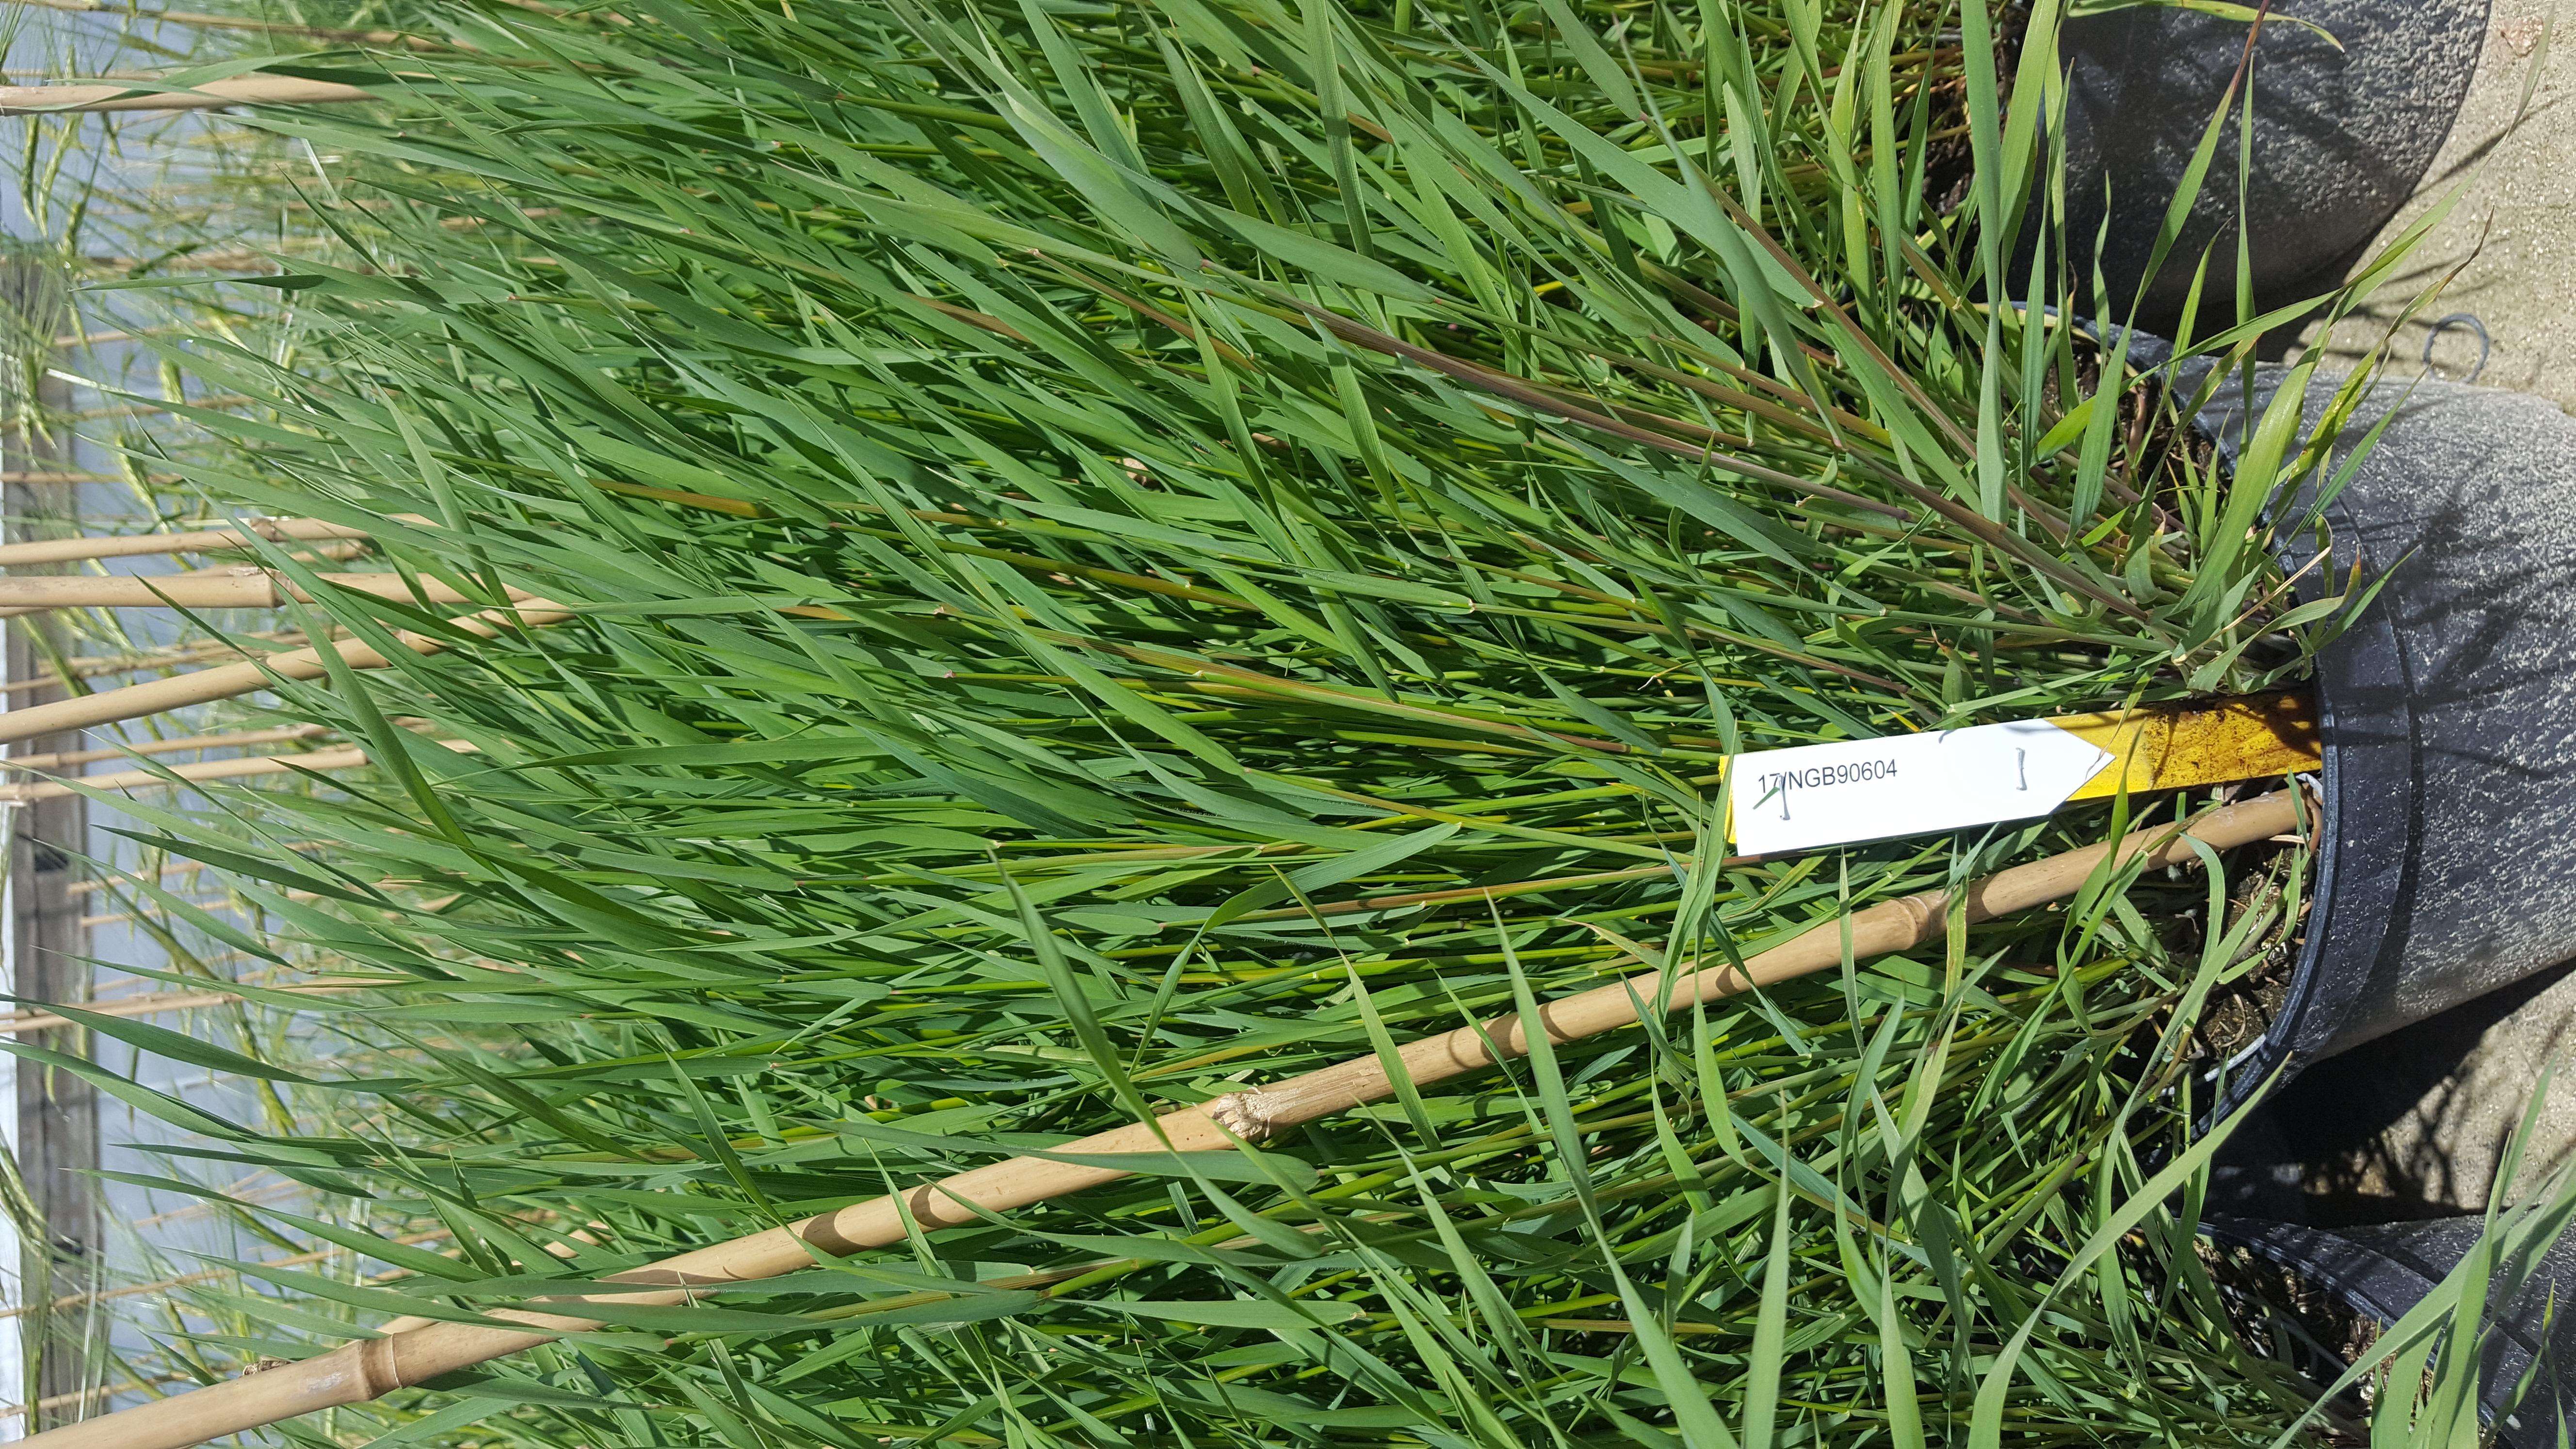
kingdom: Plantae
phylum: Tracheophyta
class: Liliopsida
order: Poales
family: Poaceae
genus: Hordeum
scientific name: Hordeum jubatum
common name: Foxtail barley
